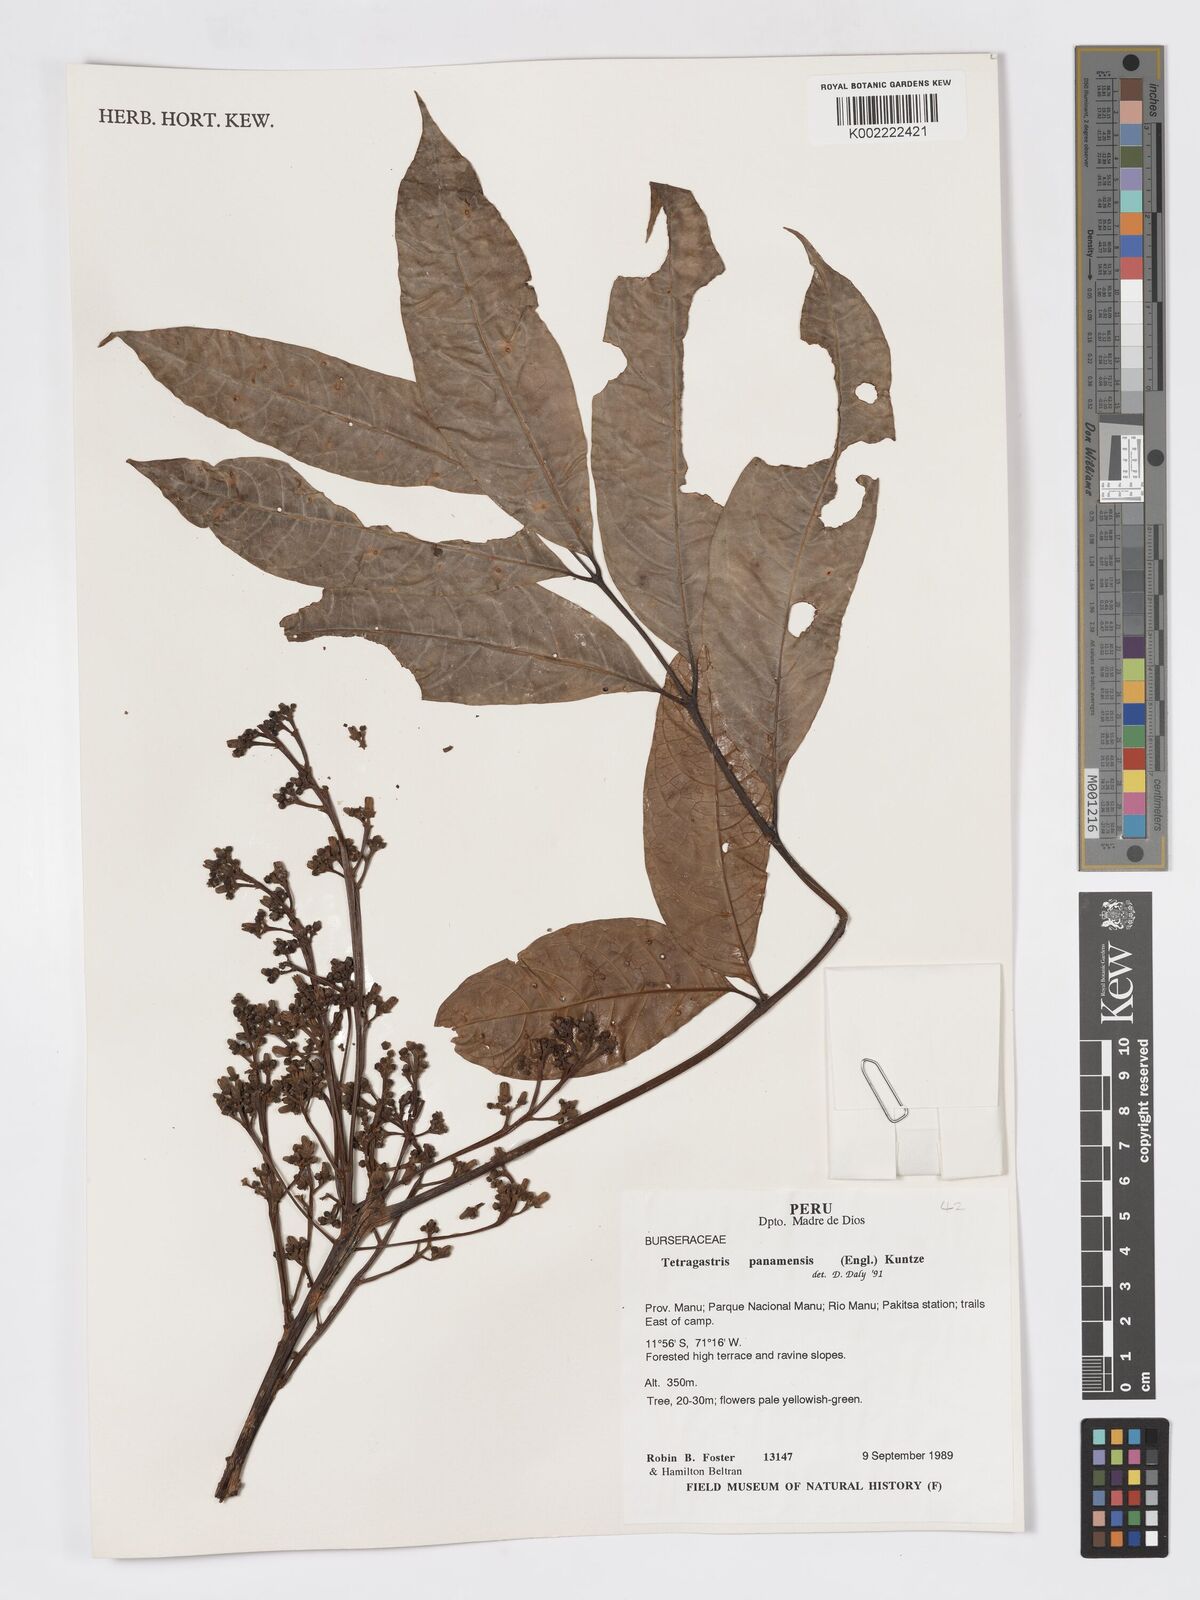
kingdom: Plantae
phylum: Tracheophyta
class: Magnoliopsida
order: Sapindales
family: Burseraceae
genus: Tetragastris
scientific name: Tetragastris panamensis
